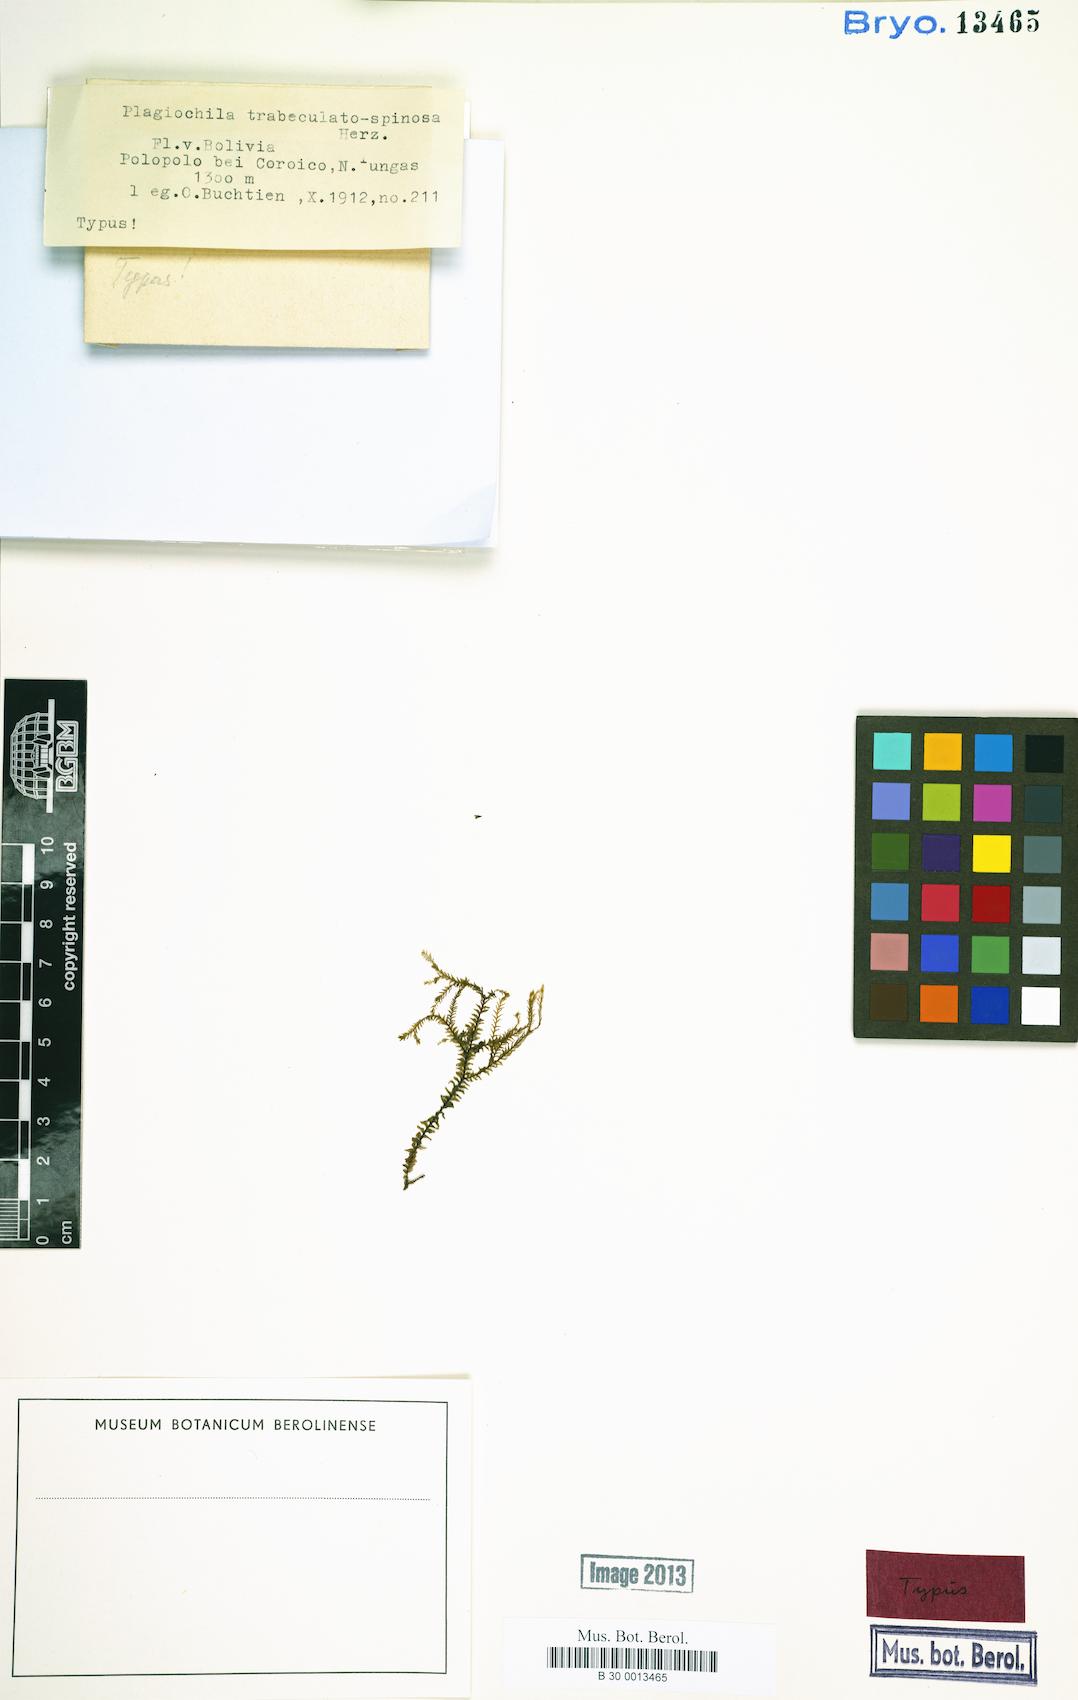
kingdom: Plantae
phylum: Marchantiophyta
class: Jungermanniopsida
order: Jungermanniales
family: Plagiochilaceae
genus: Plagiochila
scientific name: Plagiochila trabeculata
